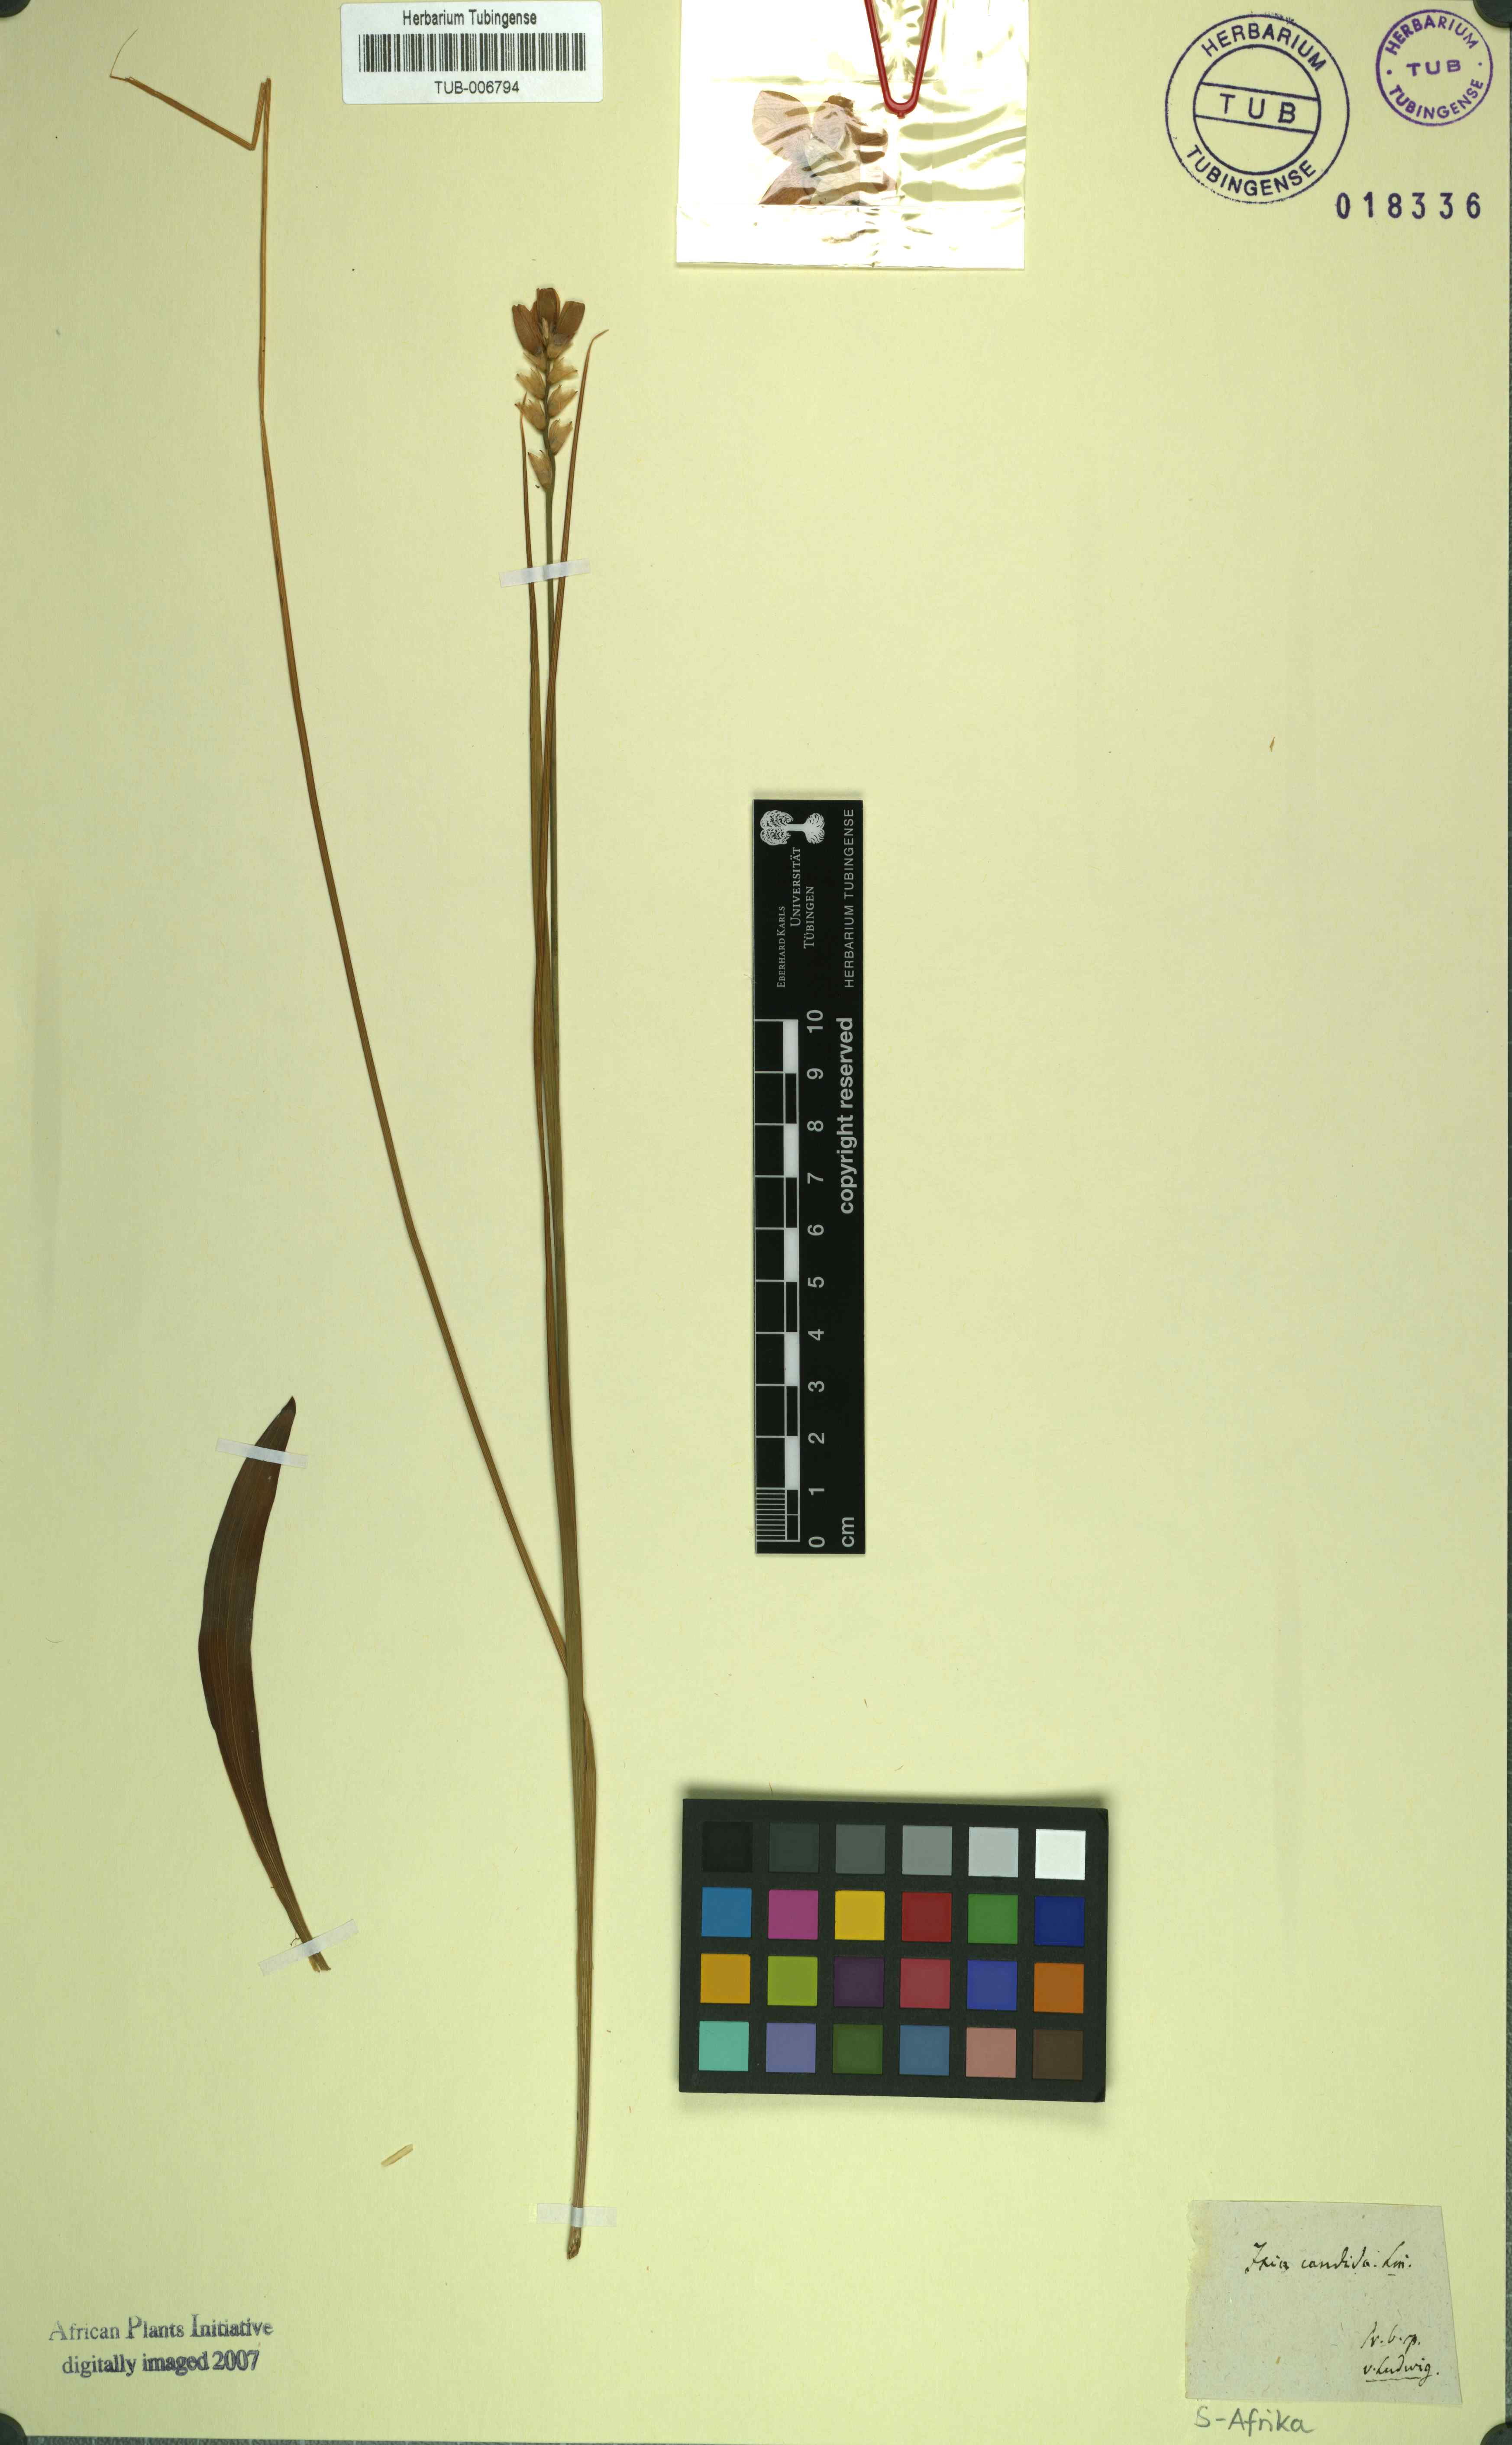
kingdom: Plantae
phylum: Tracheophyta
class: Liliopsida
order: Asparagales
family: Iridaceae
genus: Ixia
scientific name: Ixia patens
